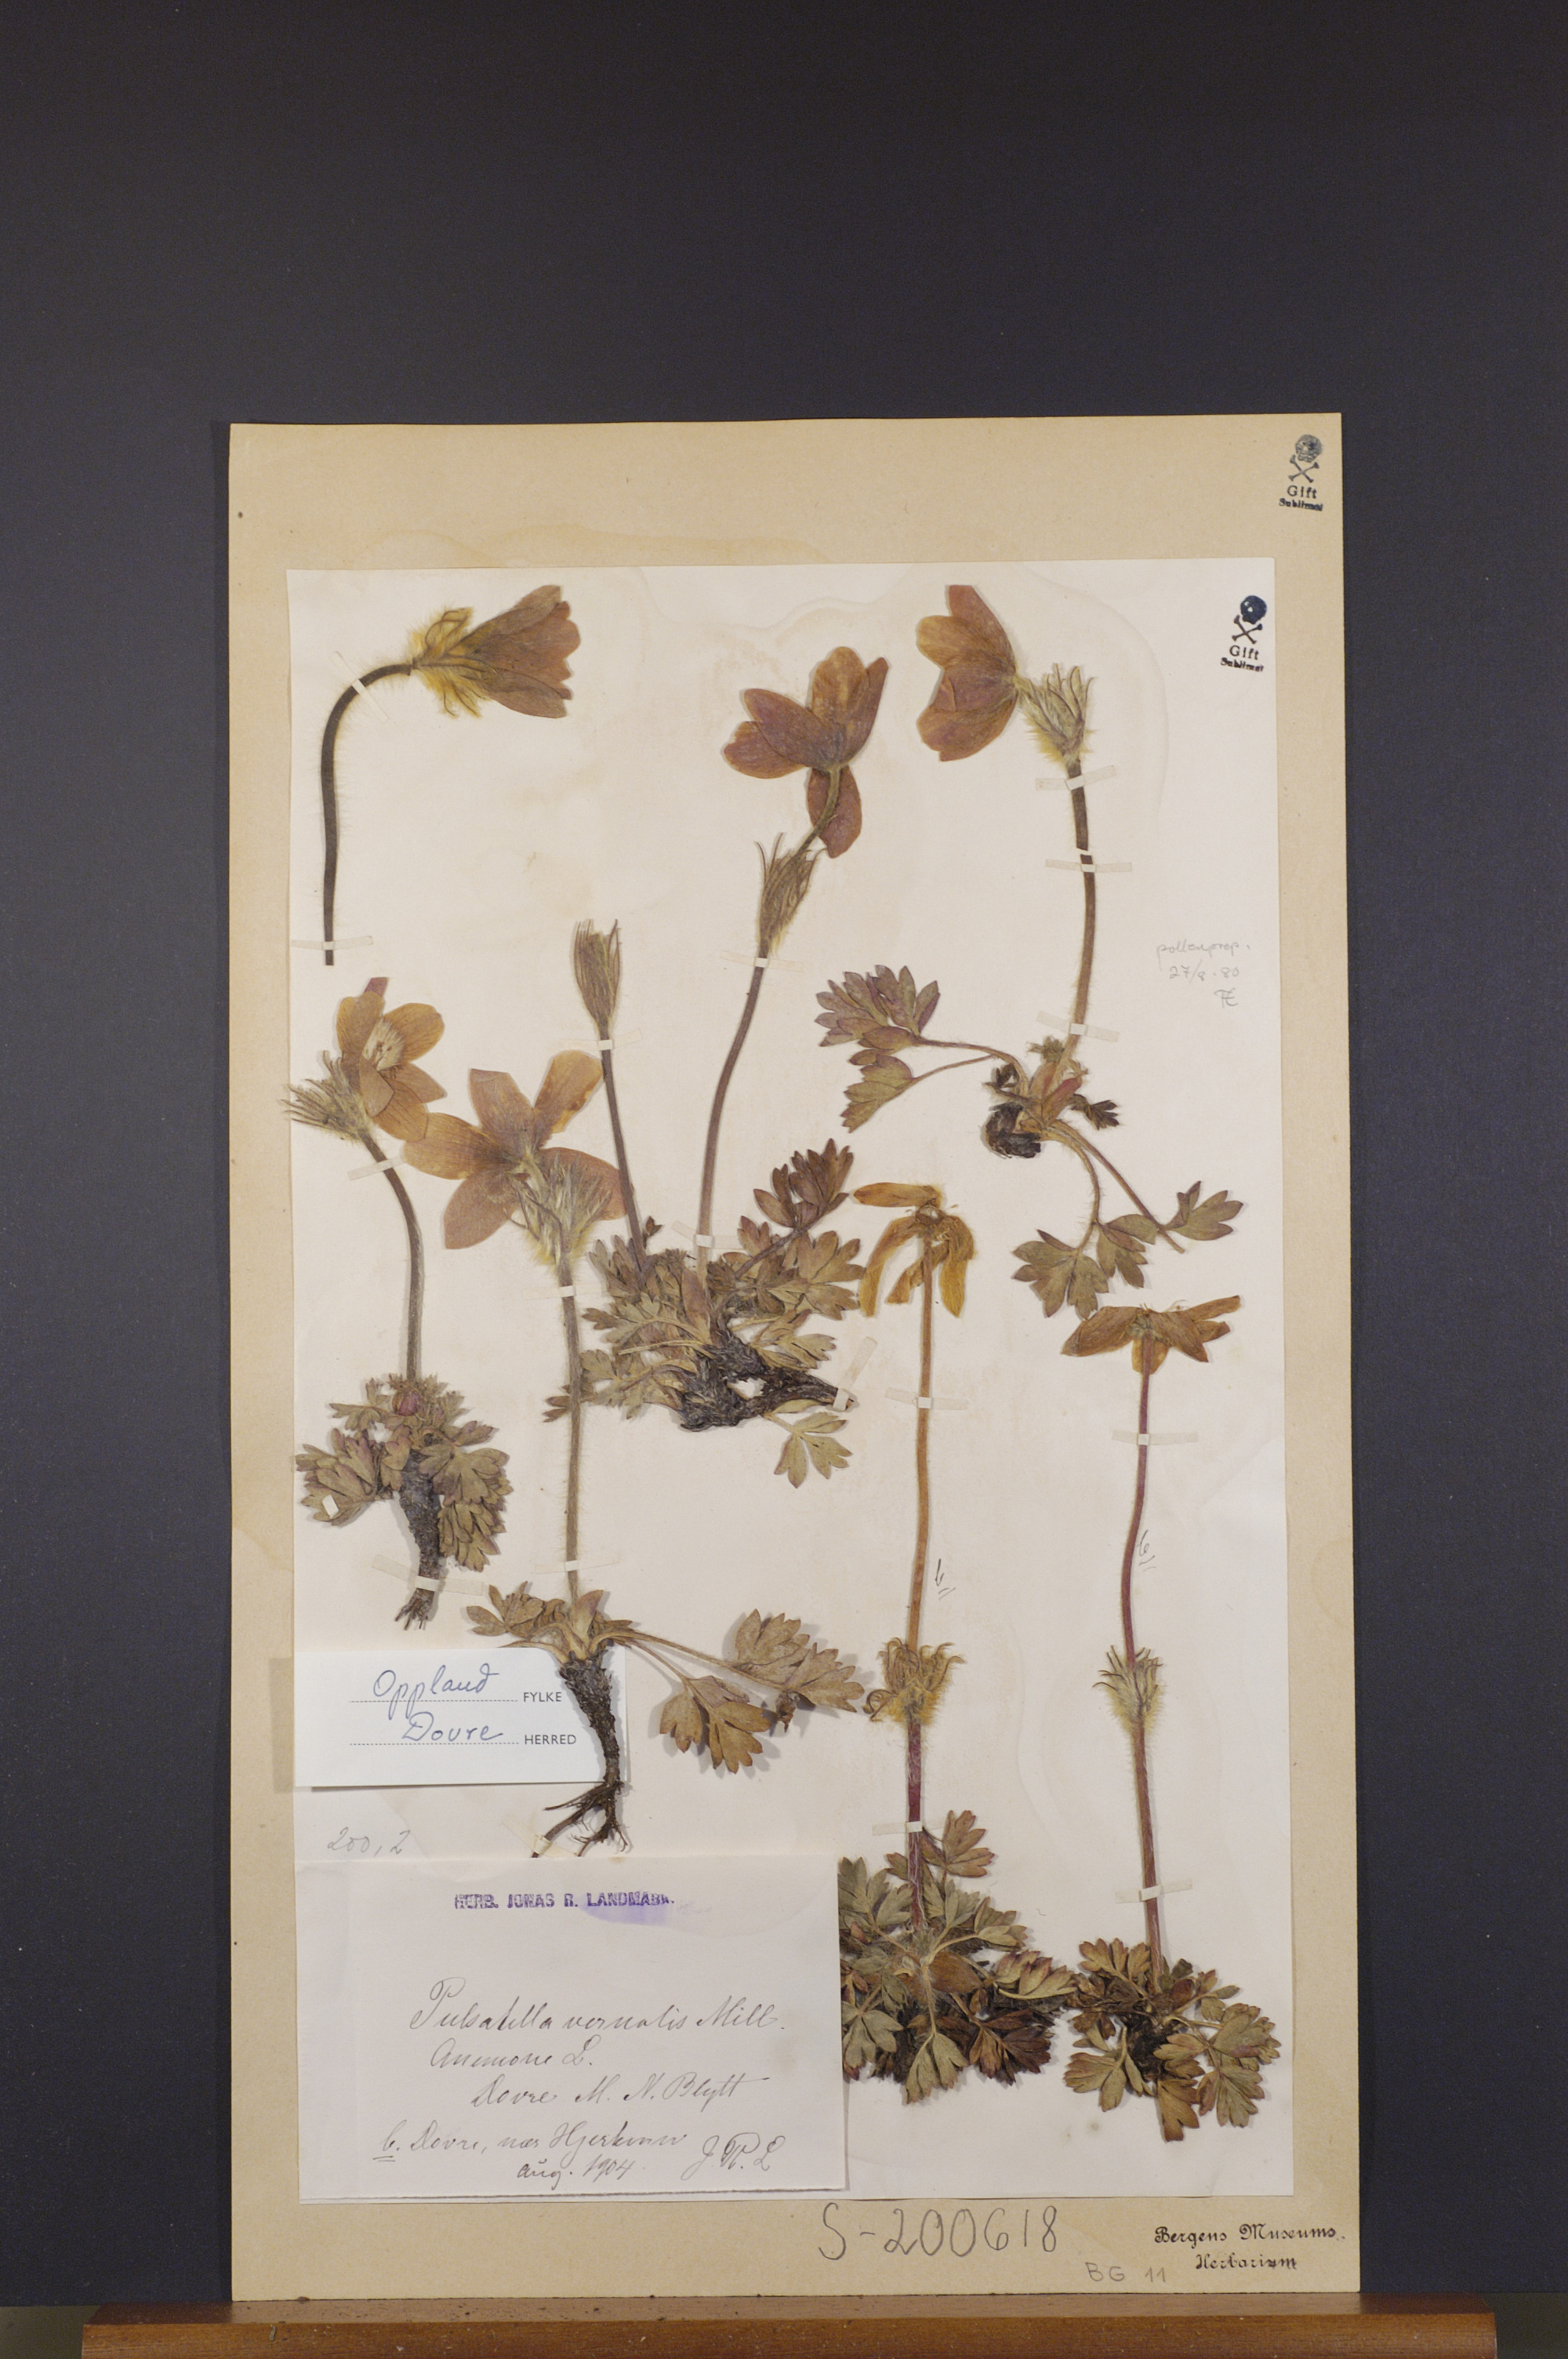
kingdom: Plantae
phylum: Tracheophyta
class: Magnoliopsida
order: Ranunculales
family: Ranunculaceae
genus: Pulsatilla
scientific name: Pulsatilla vernalis
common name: Spring pasque flower
